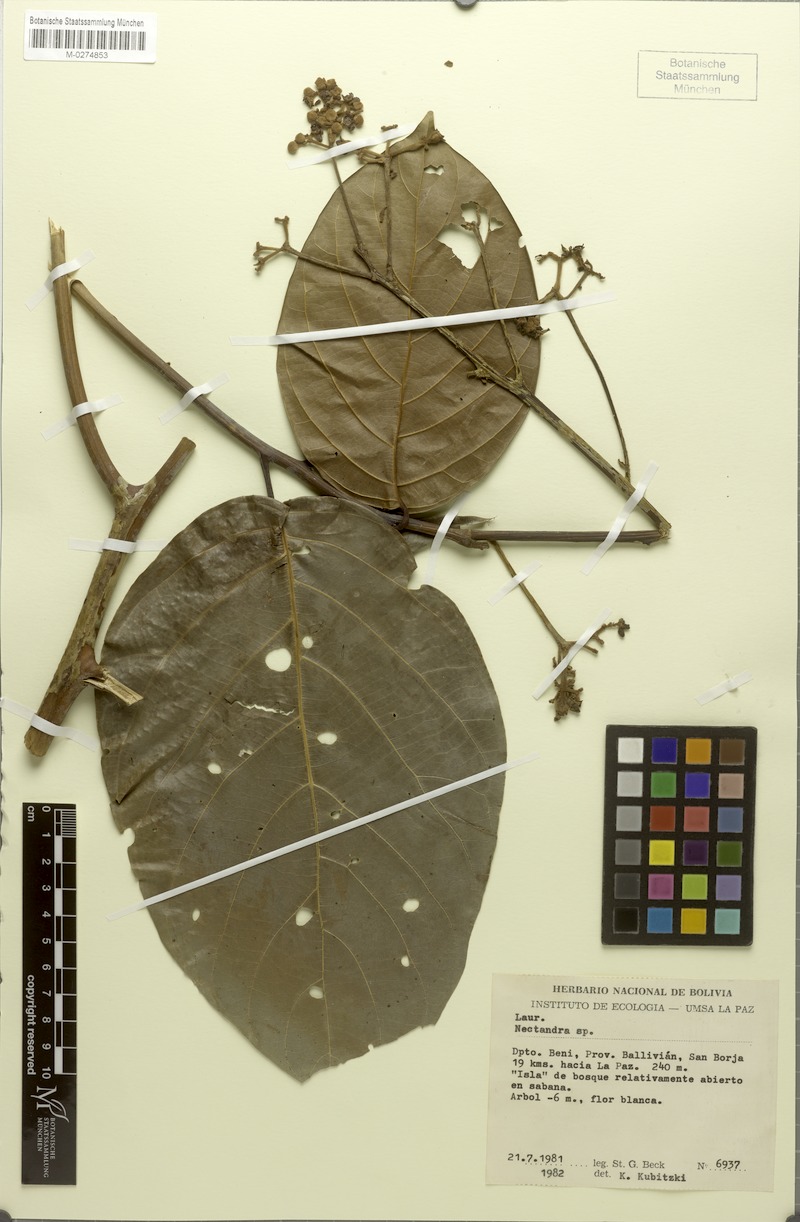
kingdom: Plantae
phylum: Tracheophyta
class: Magnoliopsida
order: Laurales
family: Lauraceae
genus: Nectandra
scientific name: Nectandra latissima
